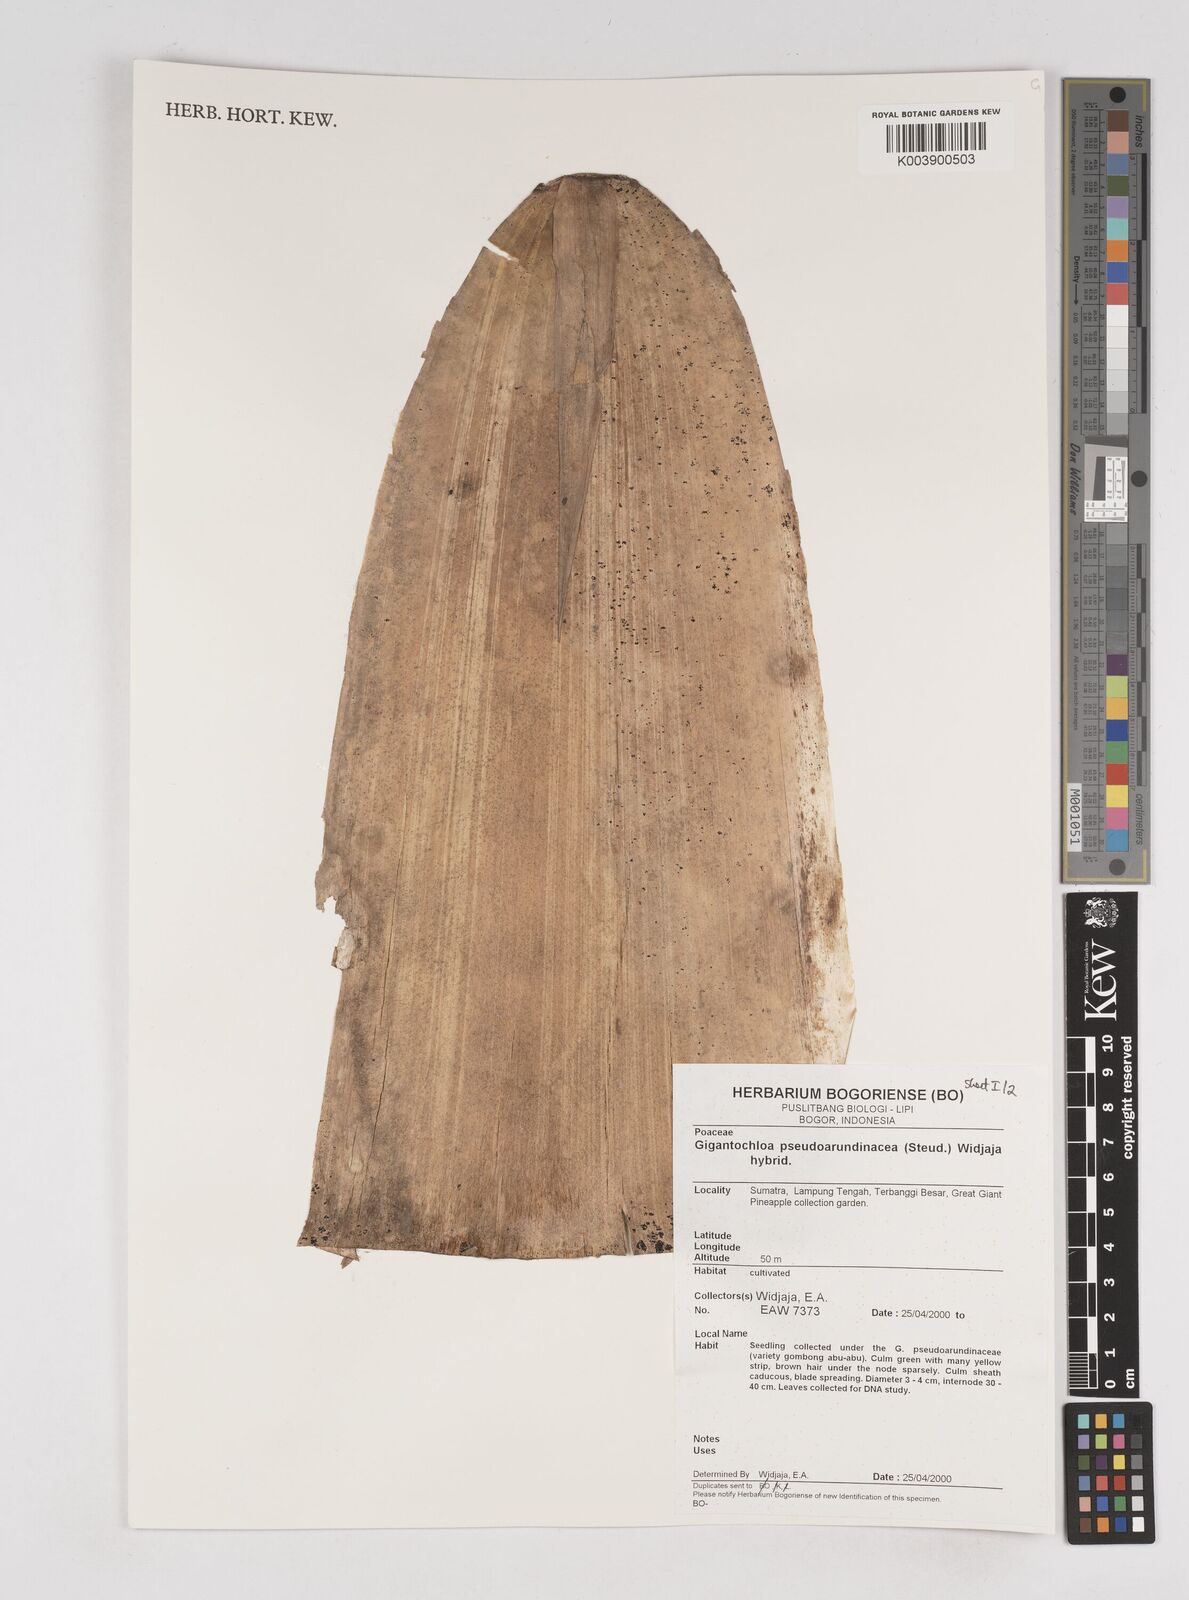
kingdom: Plantae
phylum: Tracheophyta
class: Liliopsida
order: Poales
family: Poaceae
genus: Gigantochloa
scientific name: Gigantochloa verticillata
